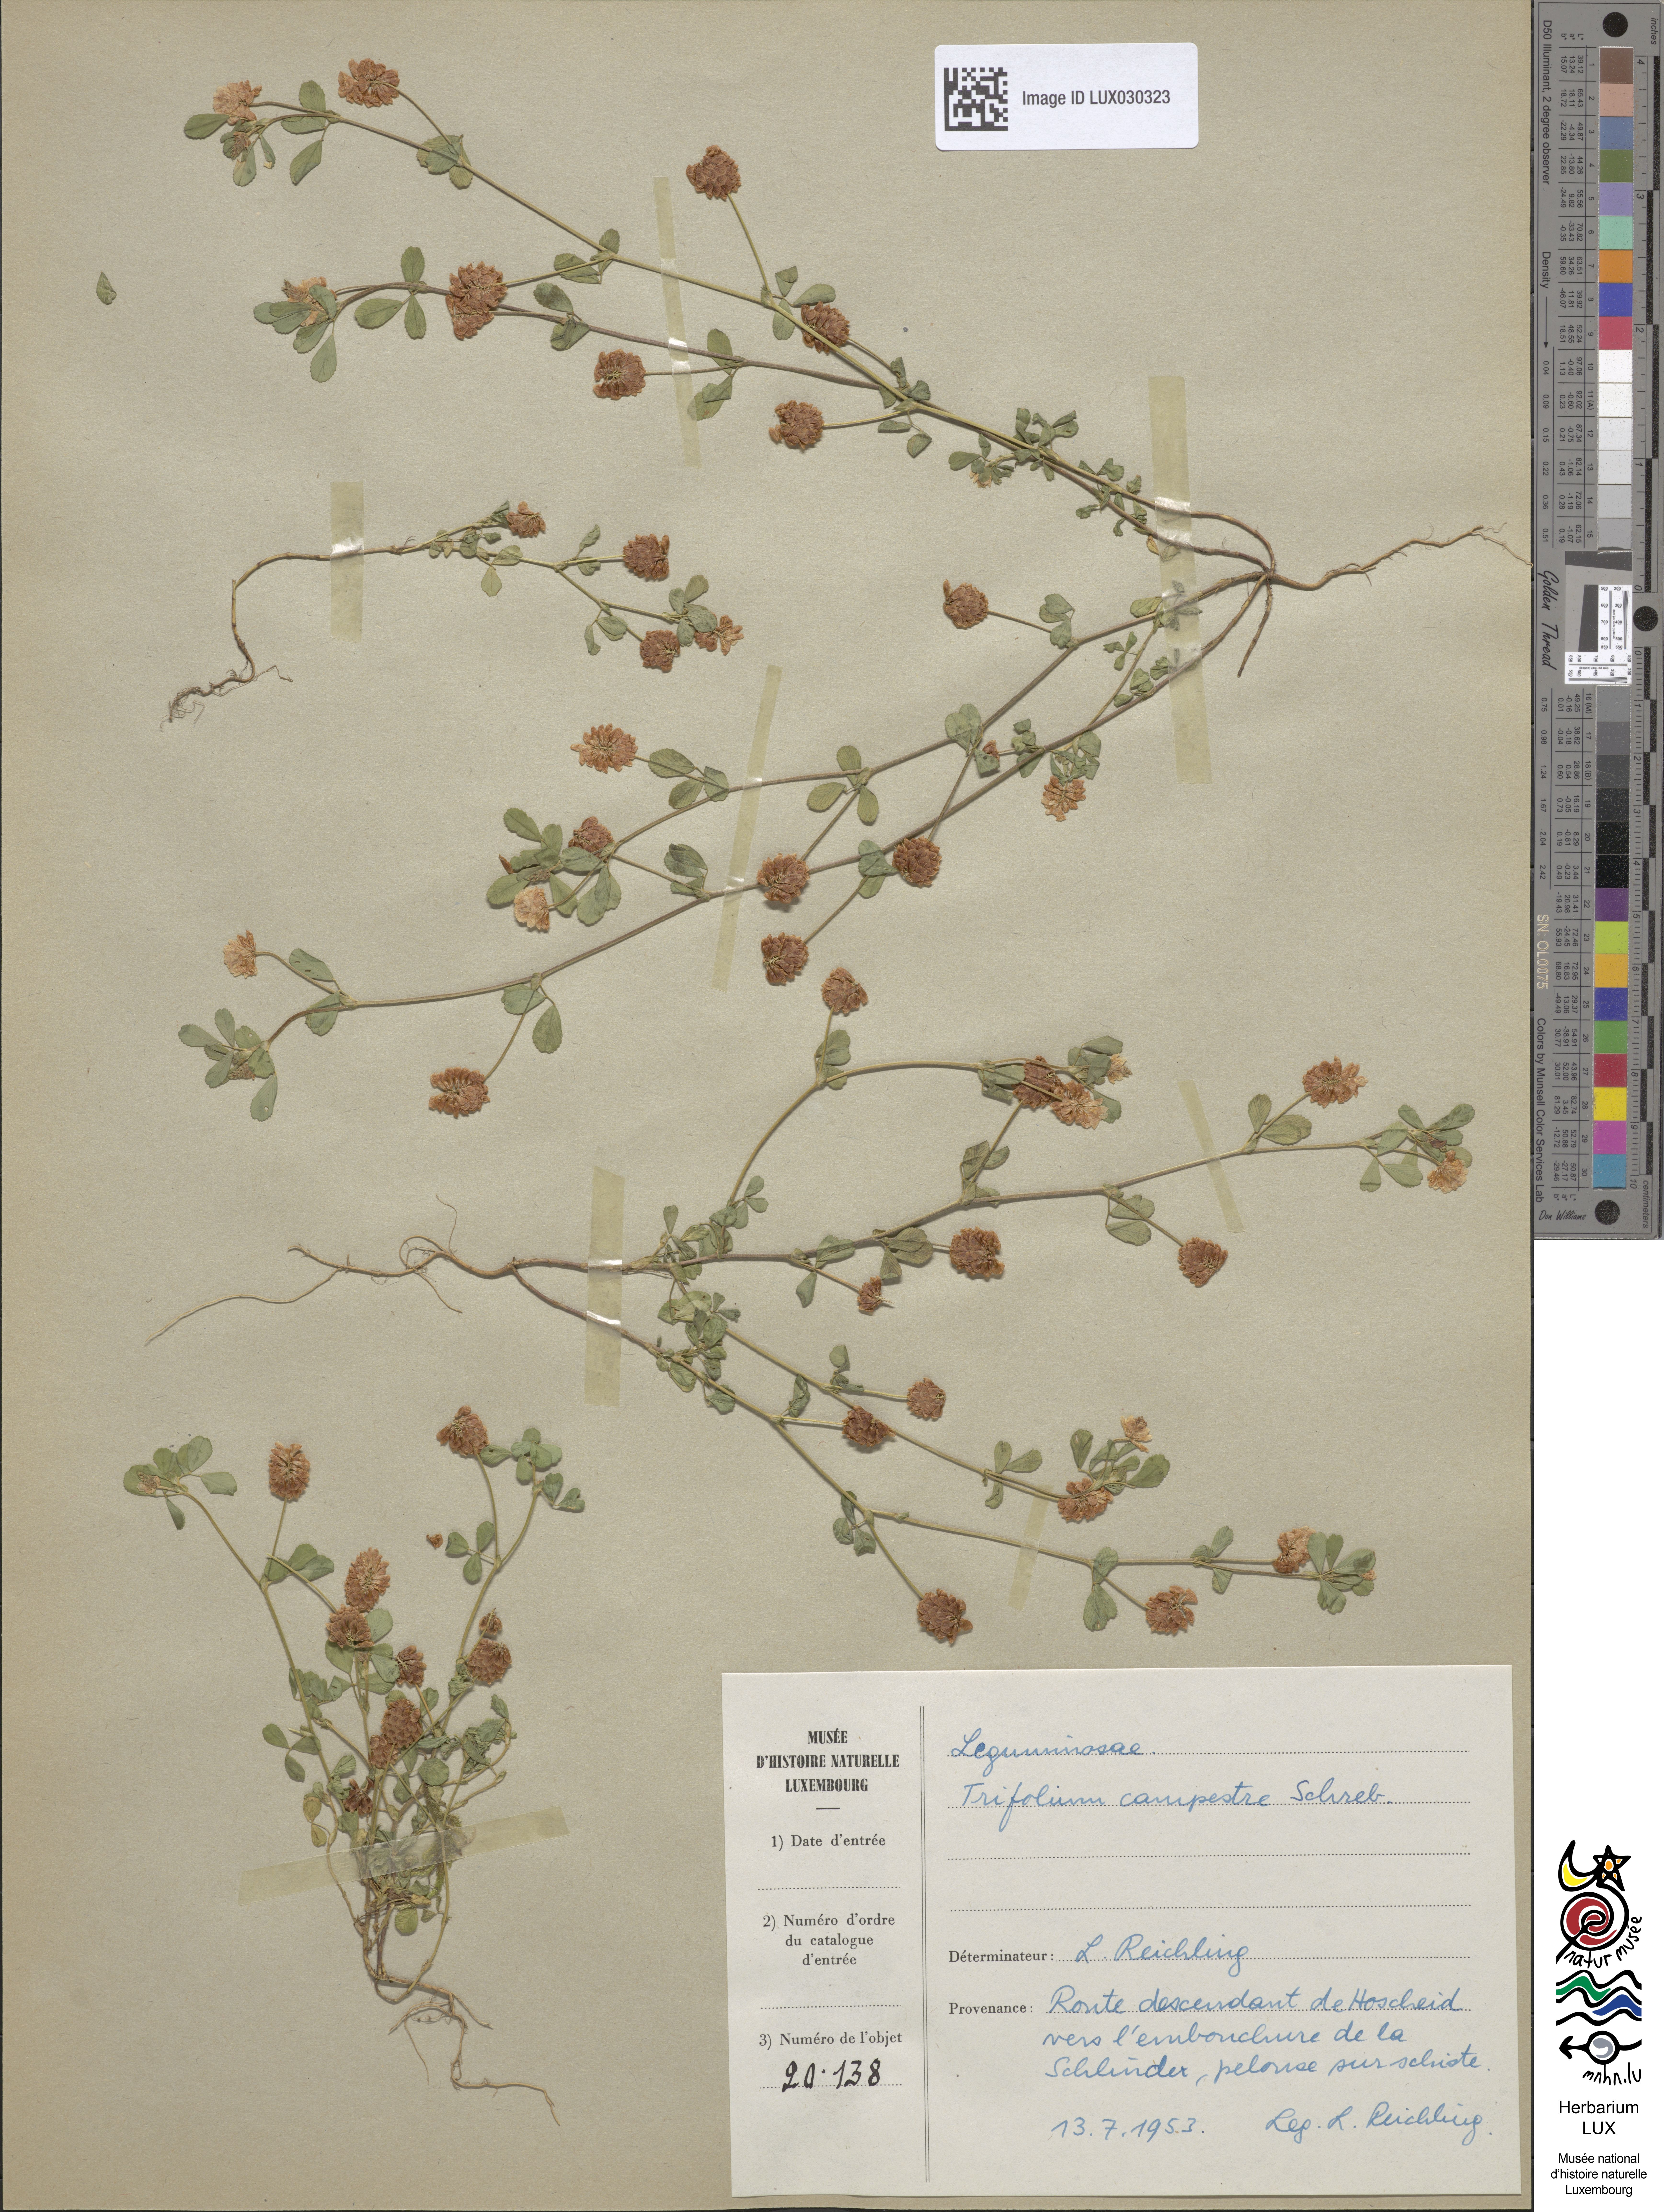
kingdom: Plantae
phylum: Tracheophyta
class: Magnoliopsida
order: Fabales
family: Fabaceae
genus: Trifolium
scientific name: Trifolium campestre
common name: Field clover
